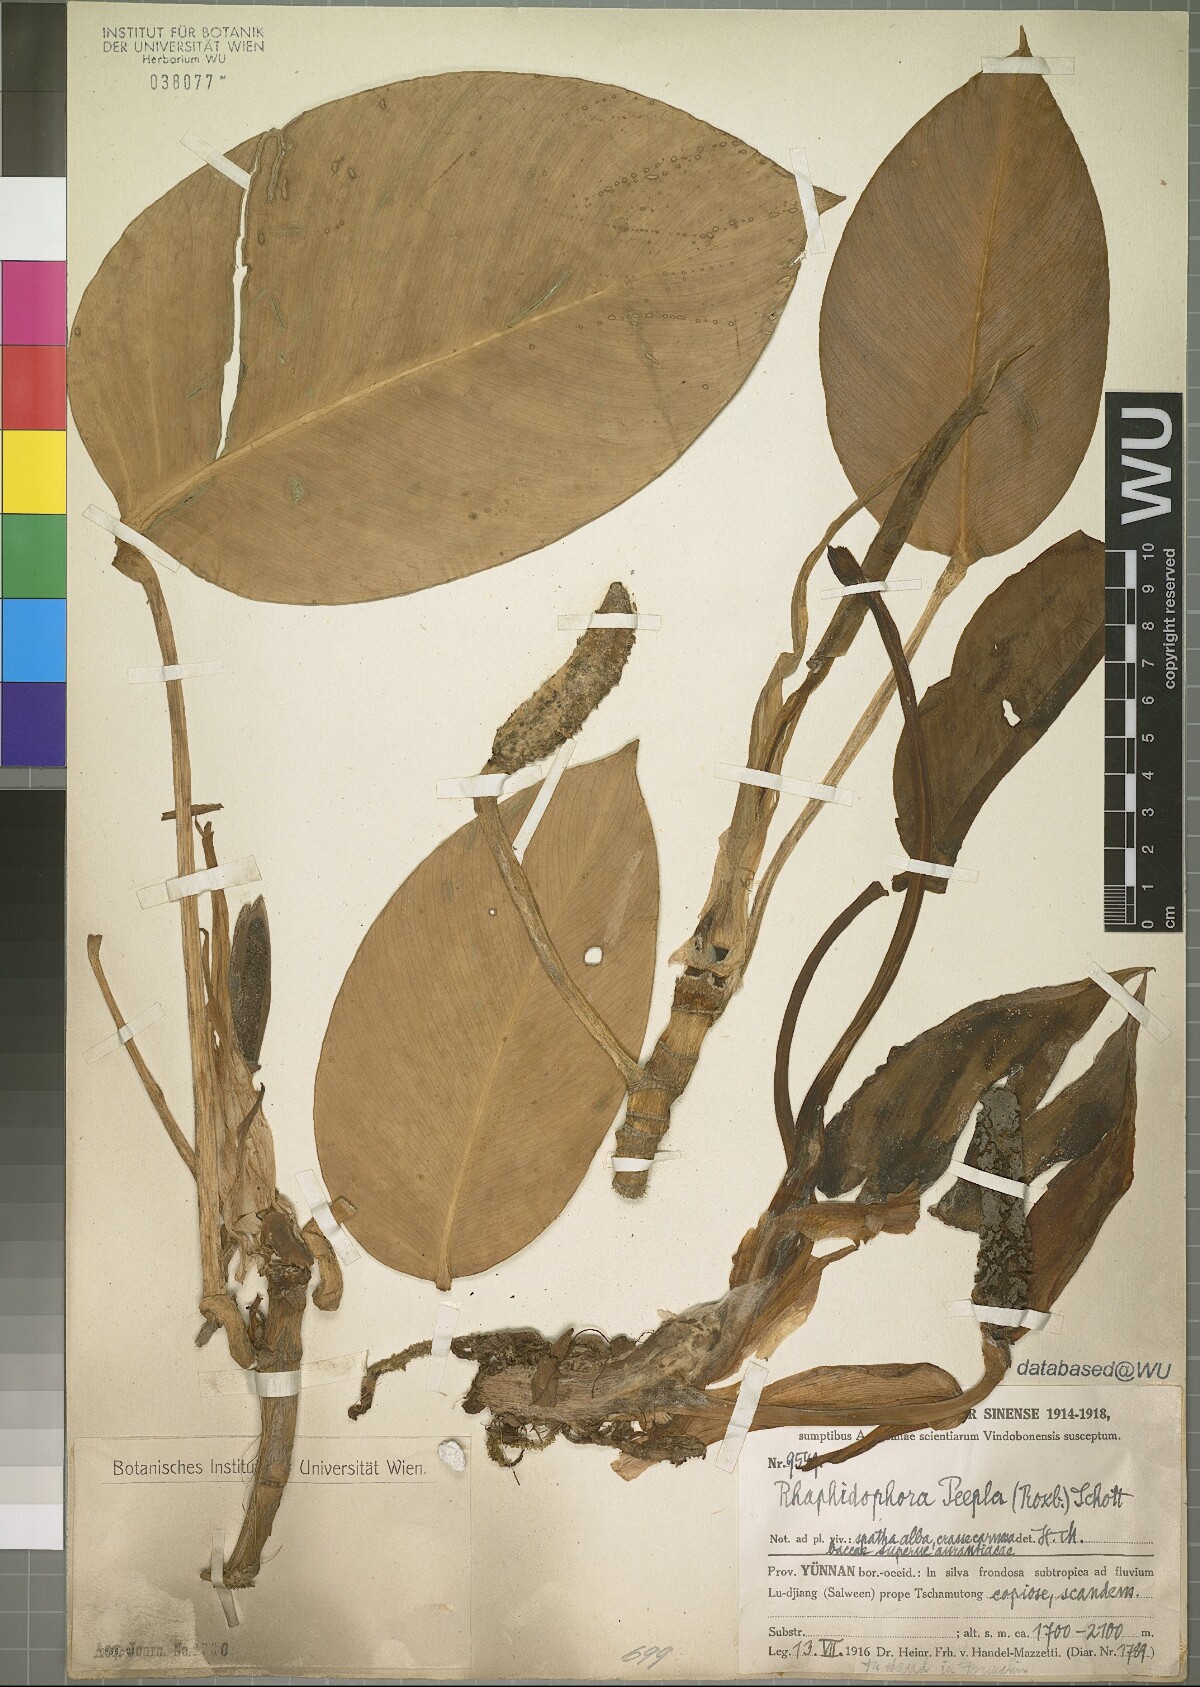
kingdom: Plantae
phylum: Tracheophyta
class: Liliopsida
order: Alismatales
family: Araceae
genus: Rhaphidophora
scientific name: Rhaphidophora peepla
